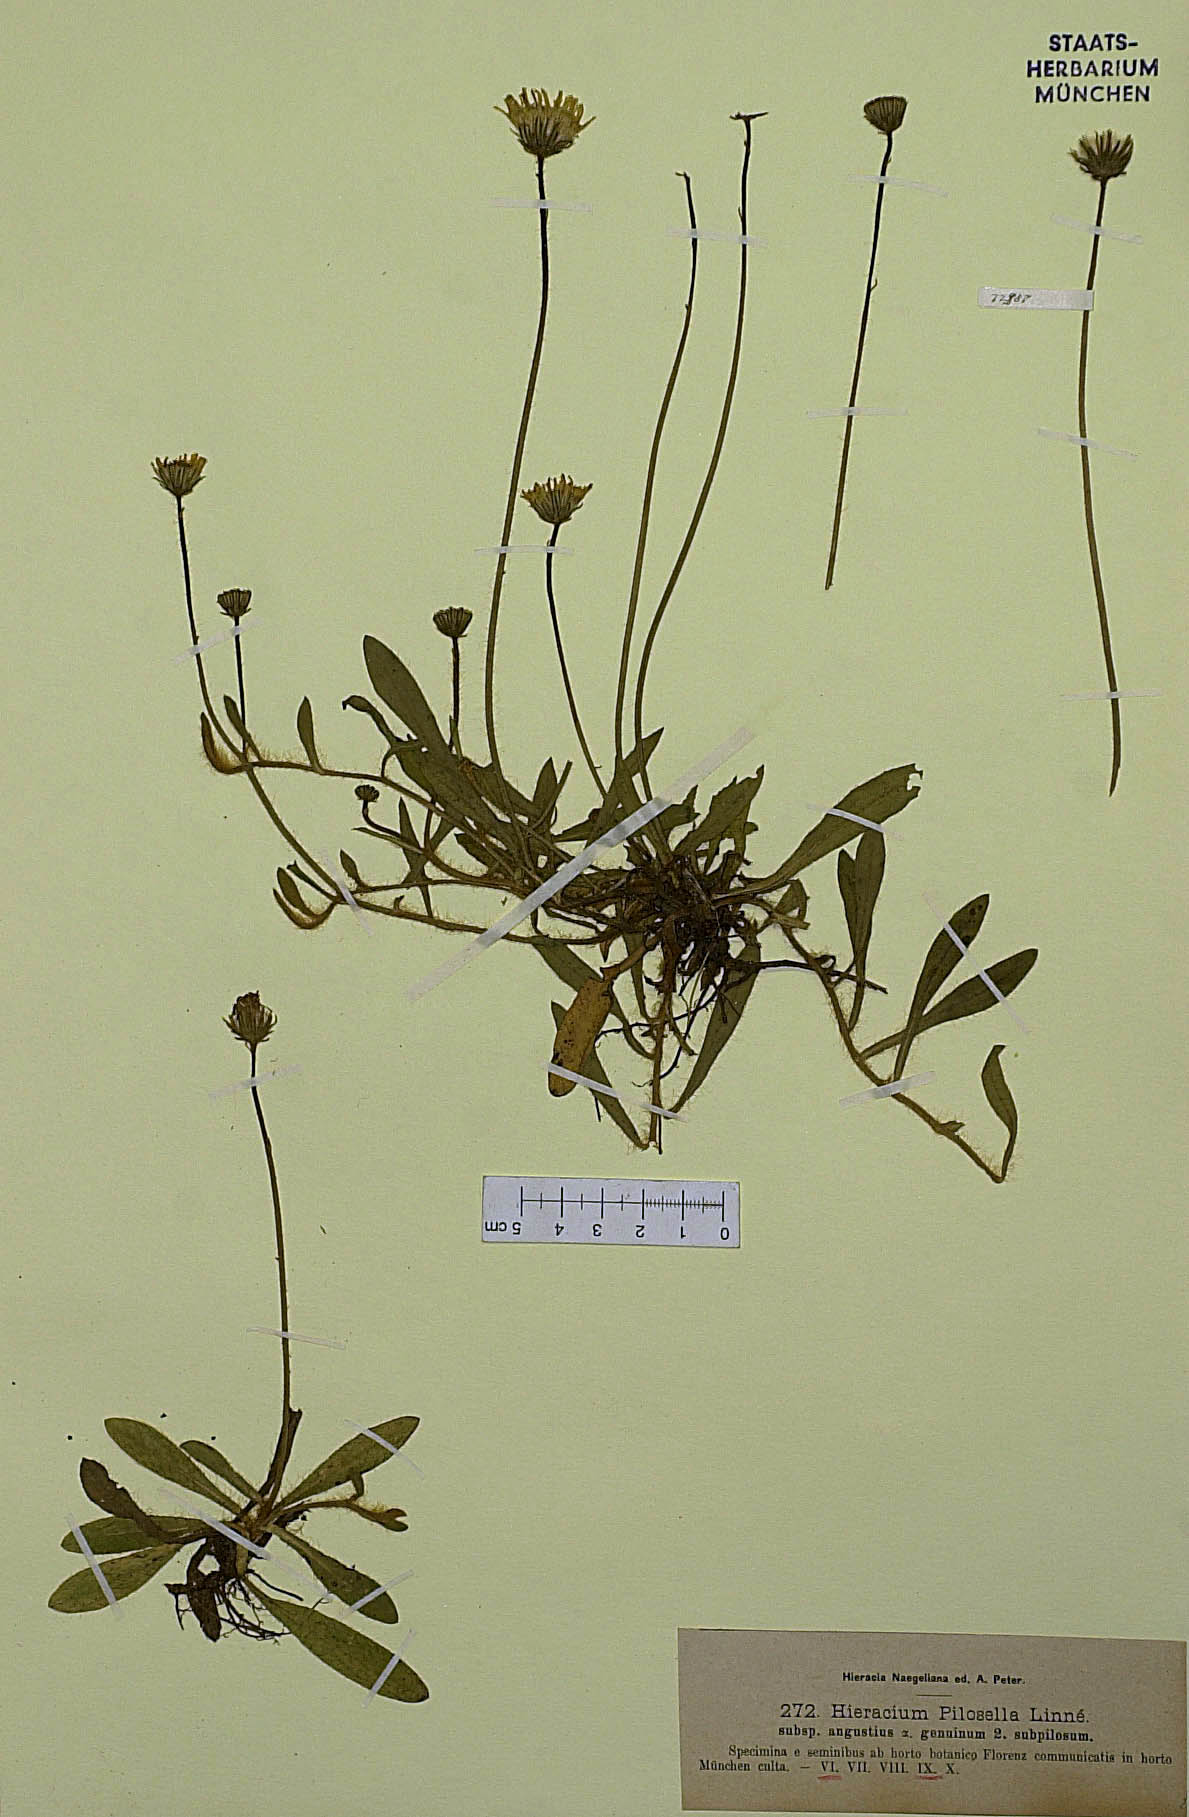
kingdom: Plantae
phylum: Tracheophyta
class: Magnoliopsida
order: Asterales
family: Asteraceae
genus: Pilosella
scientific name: Pilosella officinarum
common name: Mouse-ear hawkweed
